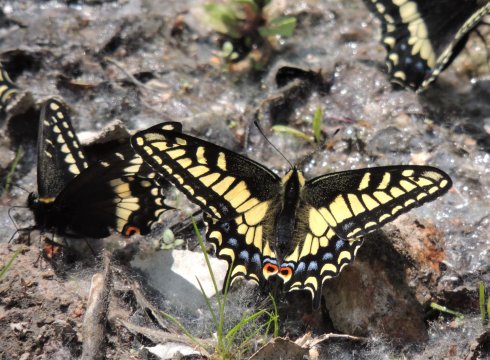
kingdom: Animalia
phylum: Arthropoda
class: Insecta
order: Lepidoptera
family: Papilionidae
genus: Papilio
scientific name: Papilio zelicaon
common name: Anise Swallowtail
